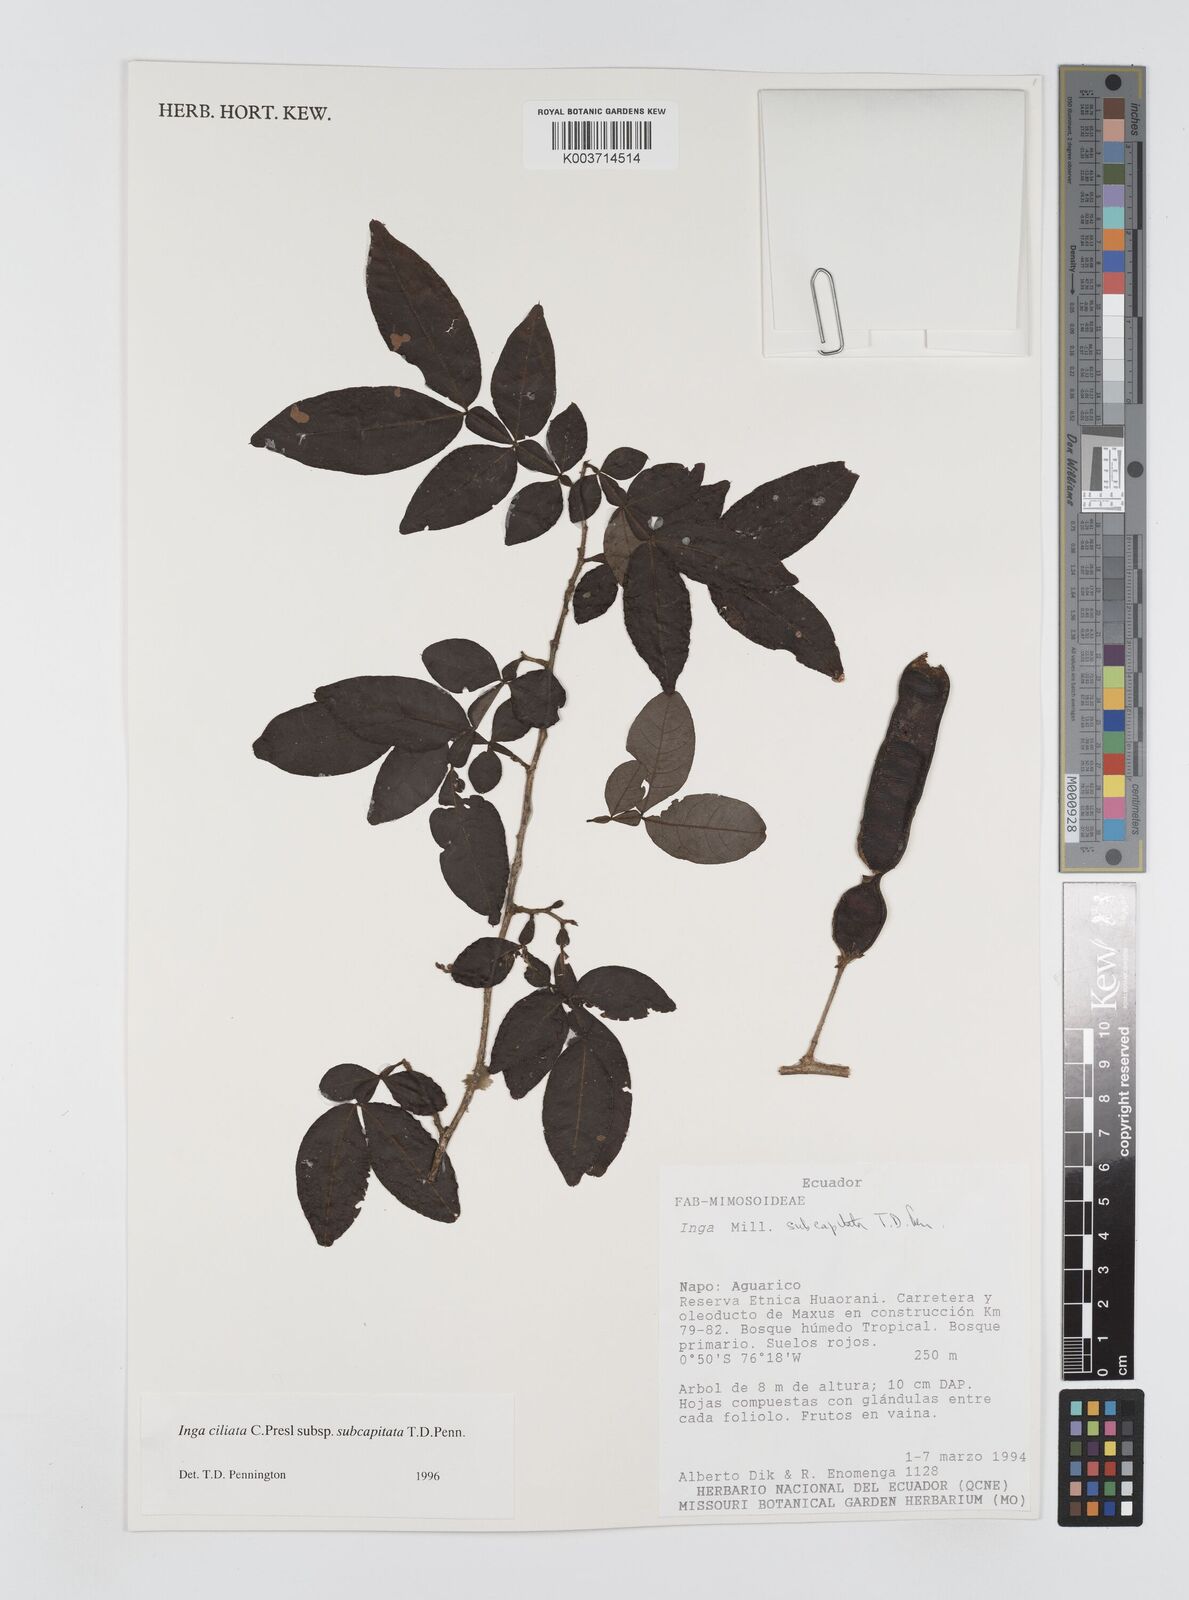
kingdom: Plantae
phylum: Tracheophyta
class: Magnoliopsida
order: Fabales
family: Fabaceae
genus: Inga
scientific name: Inga ciliata
